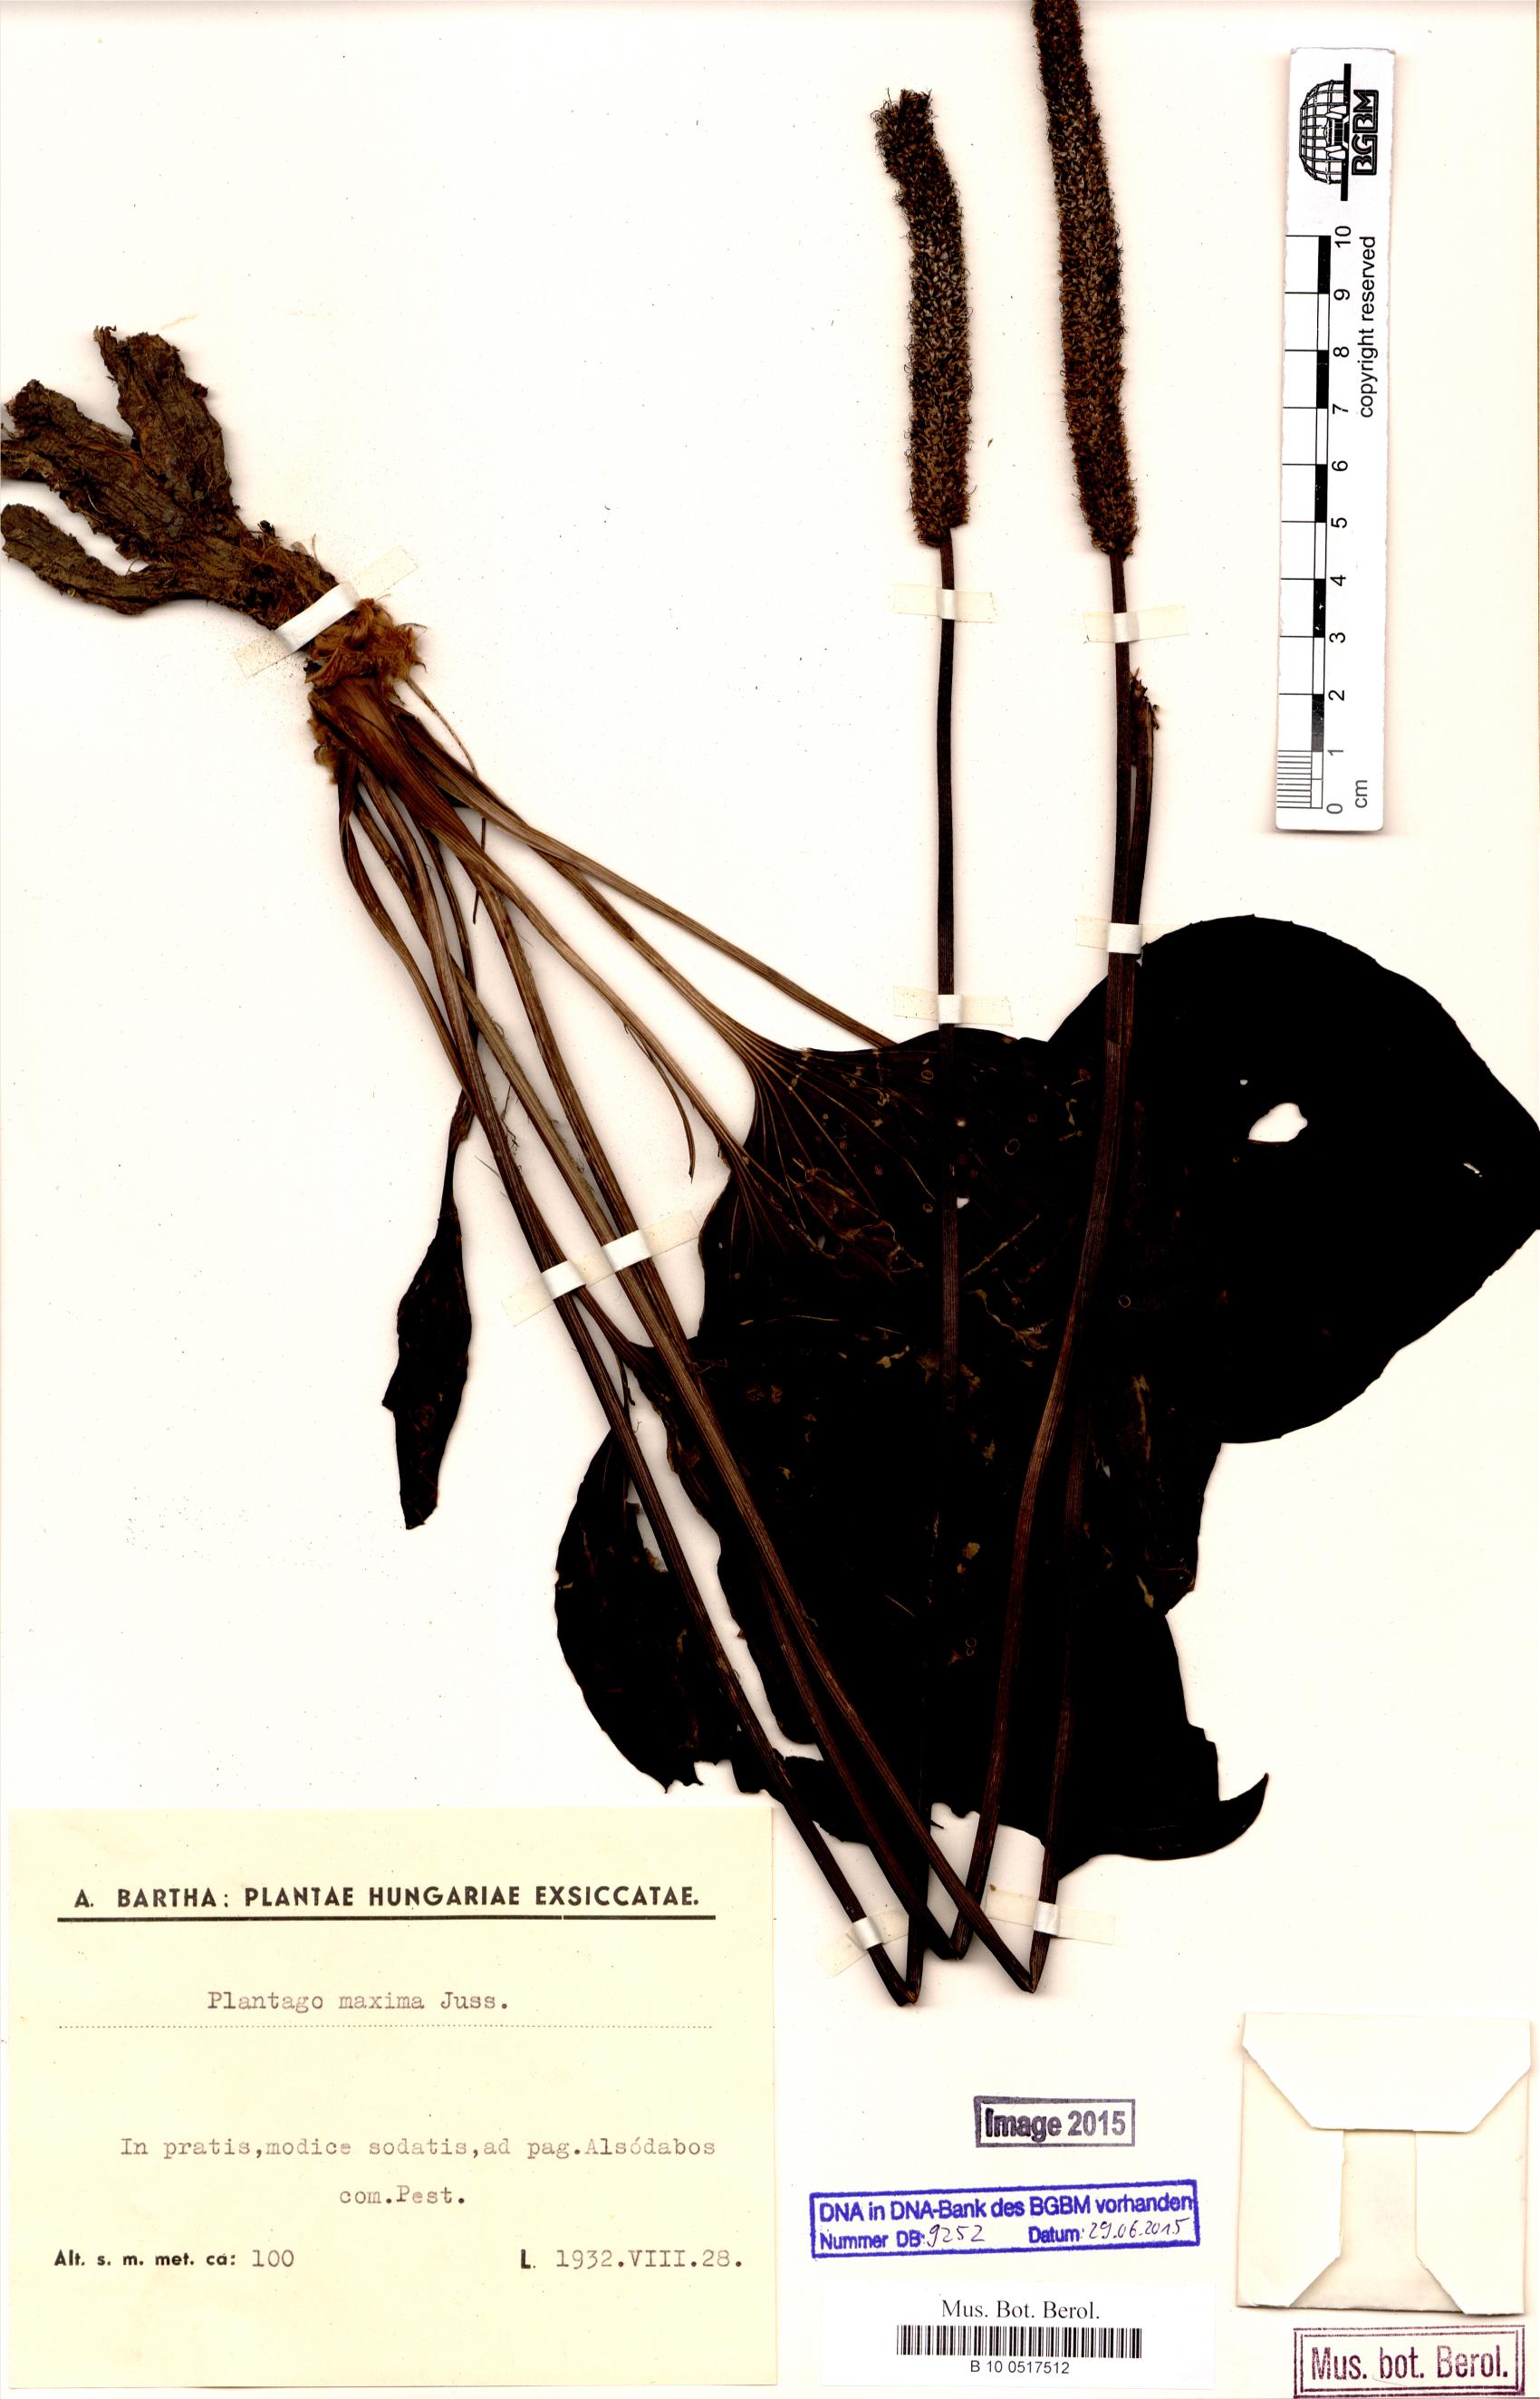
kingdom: Plantae
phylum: Tracheophyta
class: Magnoliopsida
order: Lamiales
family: Plantaginaceae
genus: Plantago
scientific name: Plantago maxima
